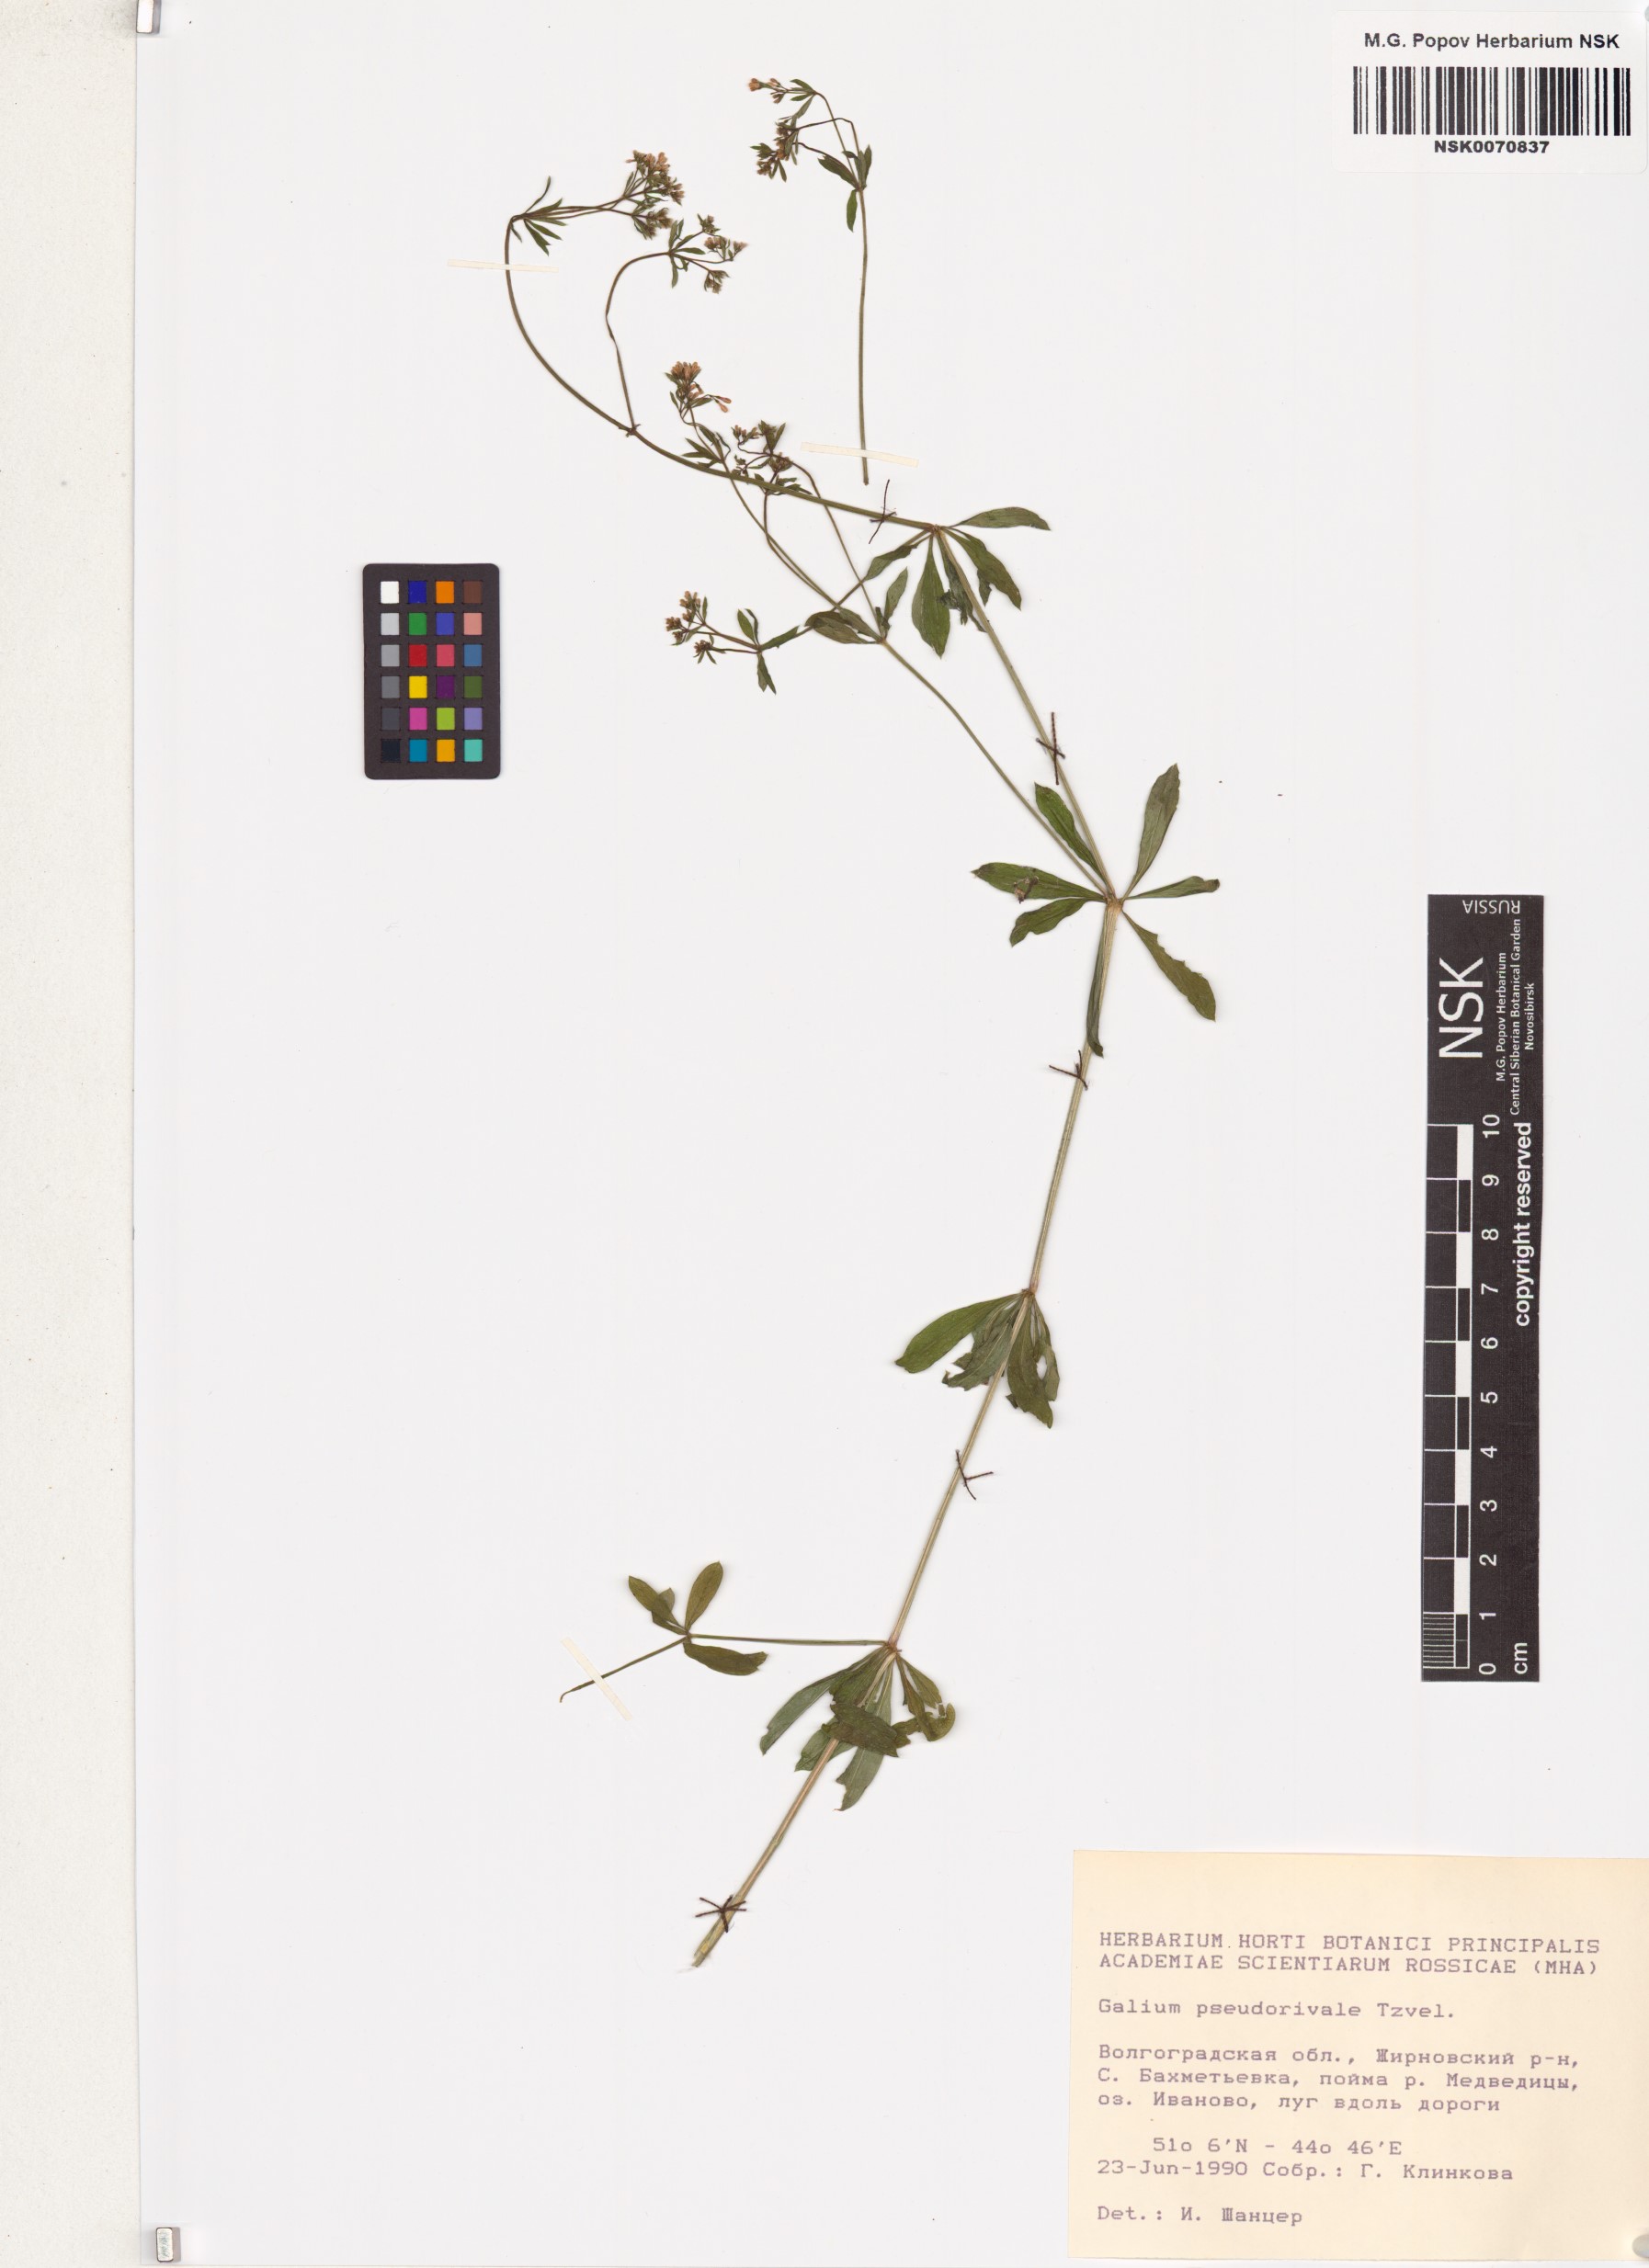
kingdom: Plantae
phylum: Tracheophyta
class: Magnoliopsida
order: Gentianales
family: Rubiaceae
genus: Galium
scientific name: Galium pseudorivale
